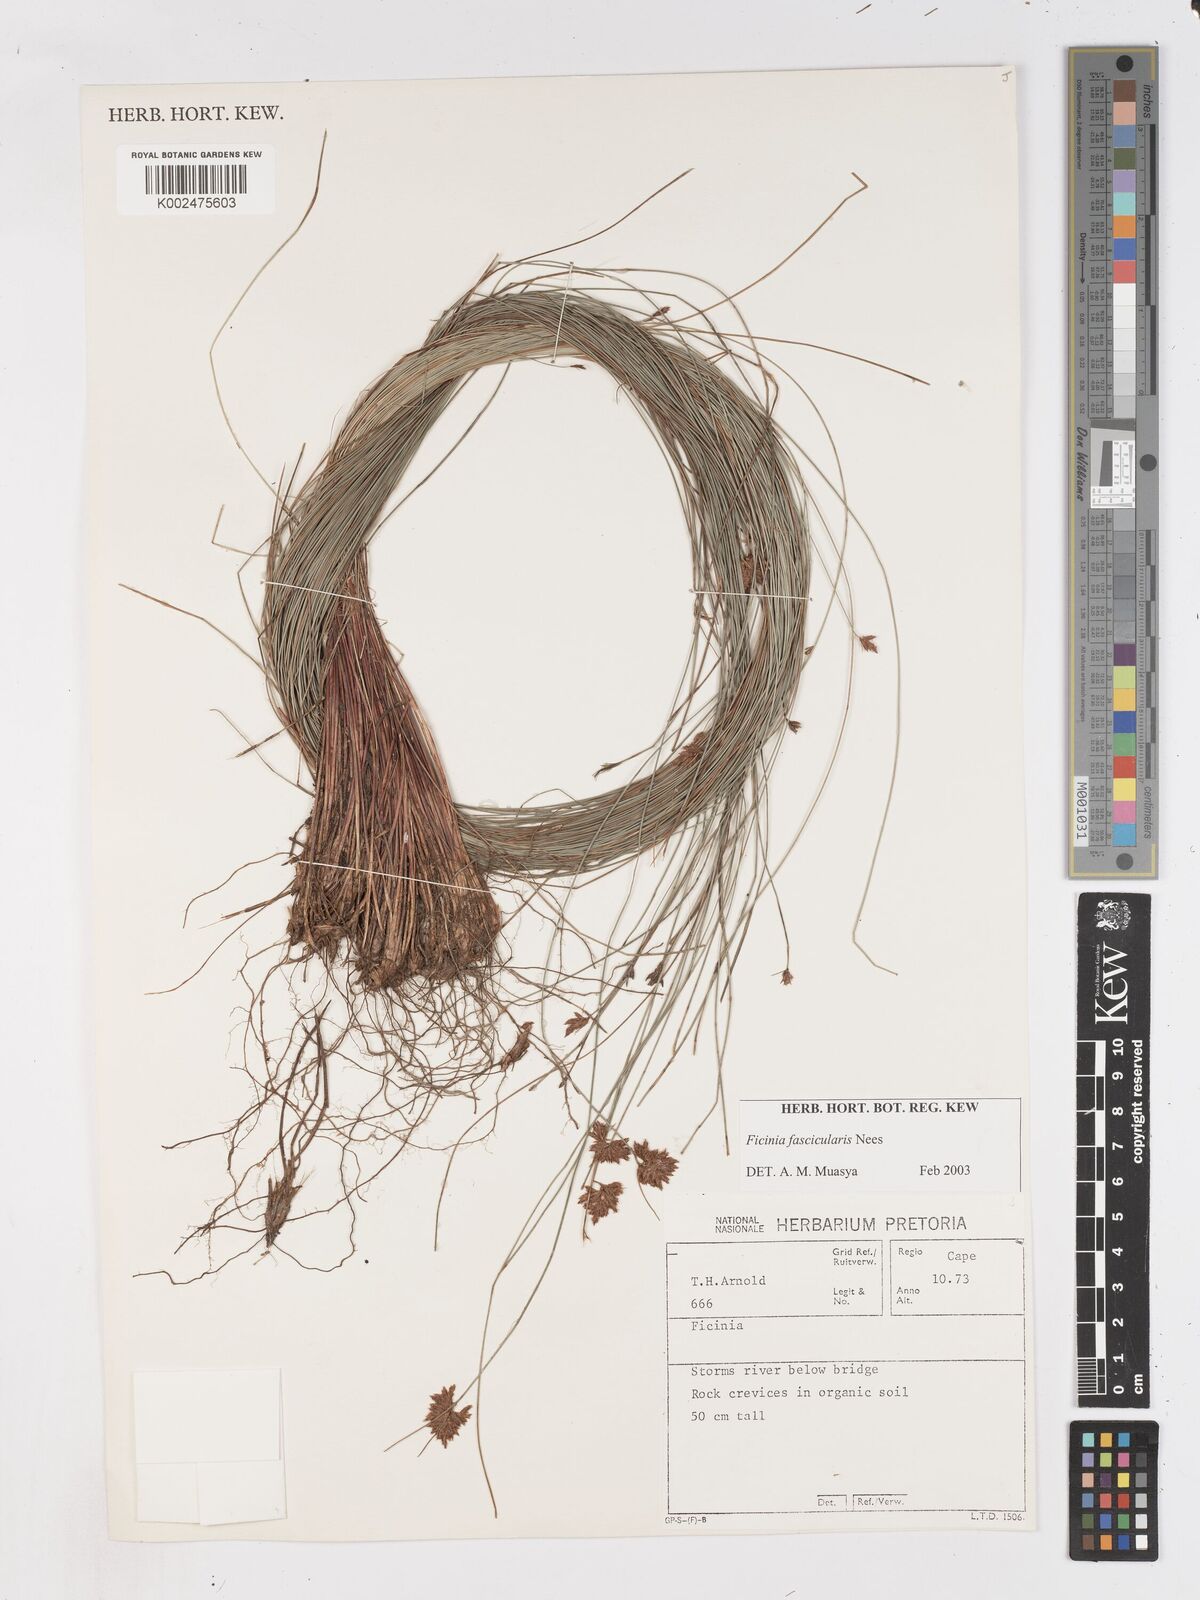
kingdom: Plantae
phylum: Tracheophyta
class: Liliopsida
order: Poales
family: Cyperaceae
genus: Ficinia
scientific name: Ficinia fascicularis
